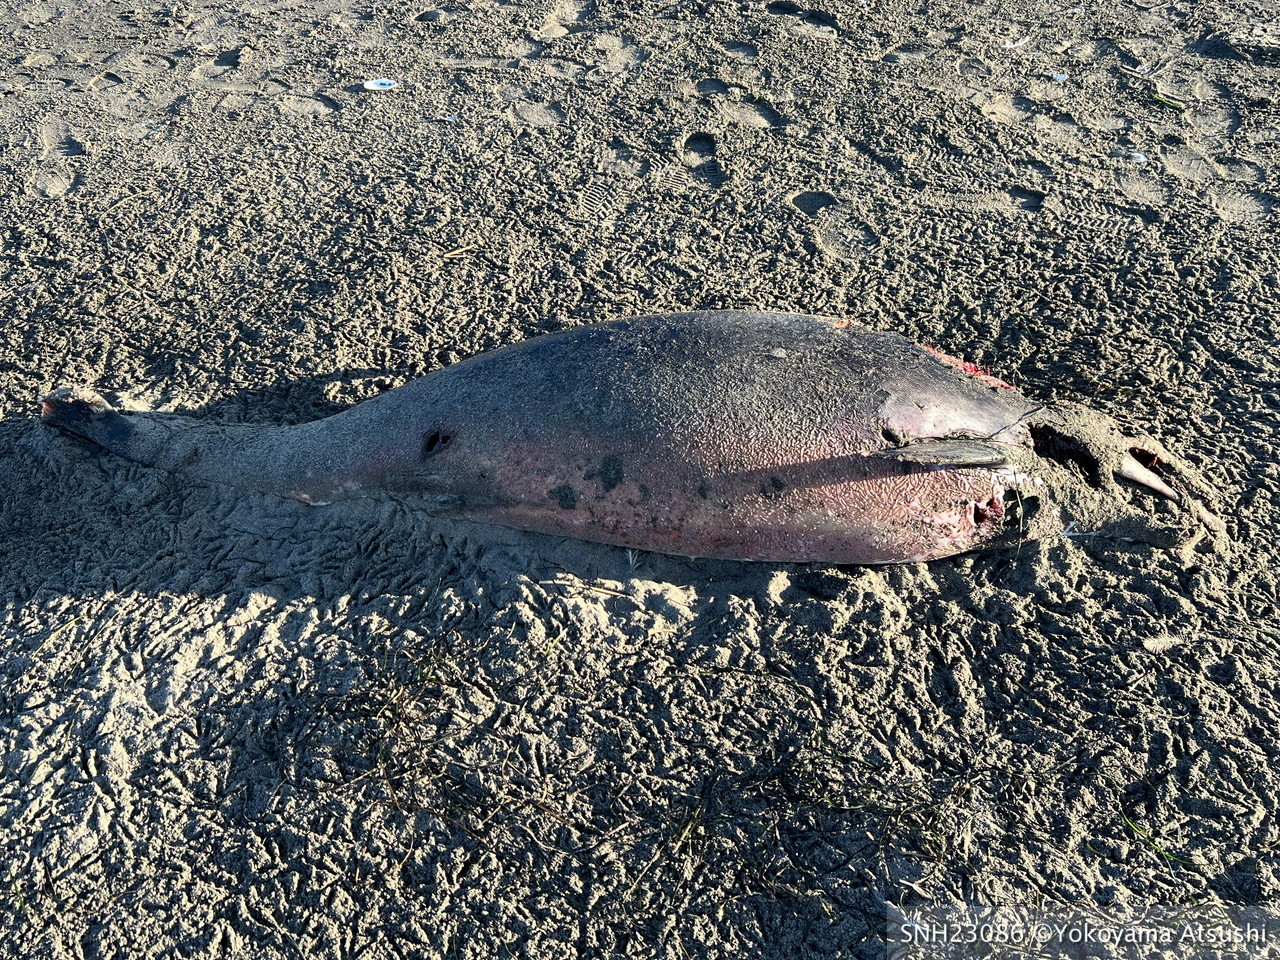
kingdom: Animalia
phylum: Chordata
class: Mammalia
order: Cetacea
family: Phocoenidae
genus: Phocoena
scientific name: Phocoena phocoena
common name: Harbour porpoise
